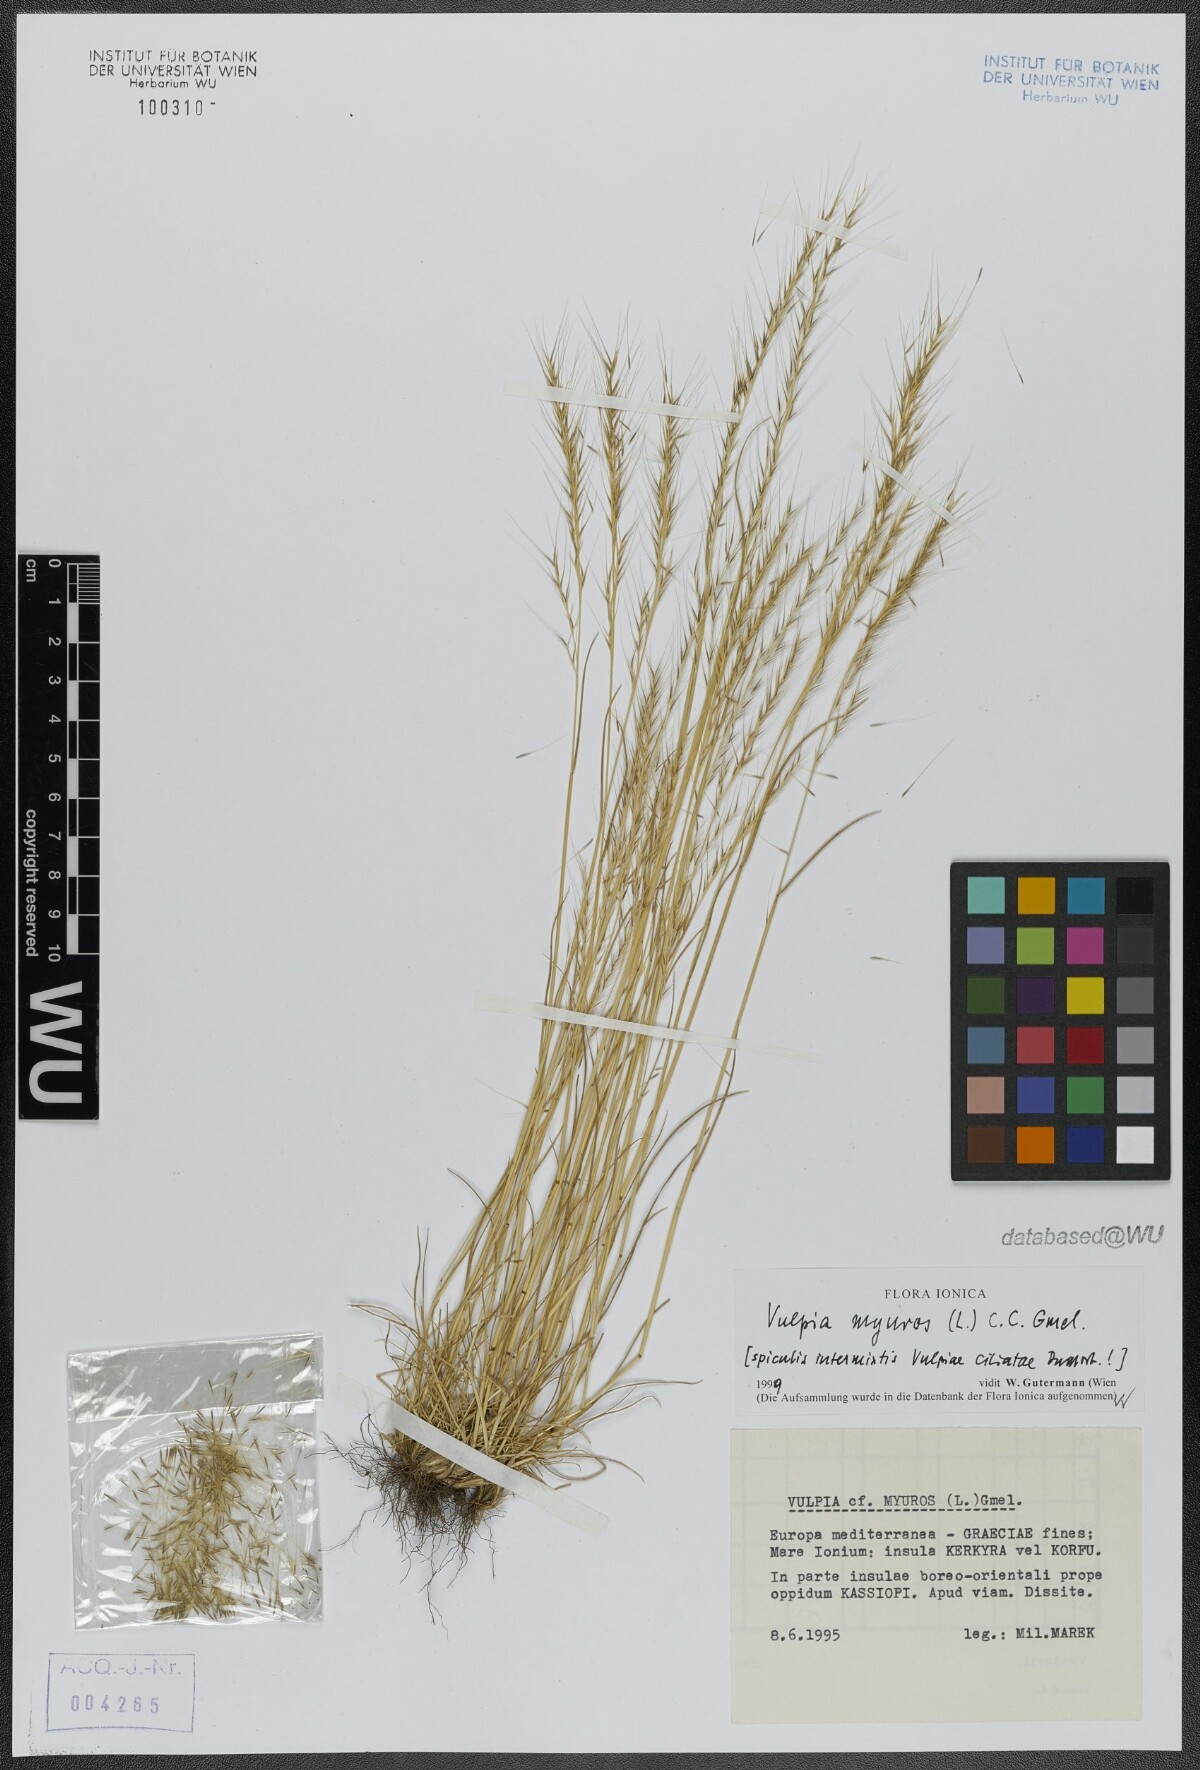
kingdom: Plantae
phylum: Tracheophyta
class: Liliopsida
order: Poales
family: Poaceae
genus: Festuca
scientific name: Festuca myuros
